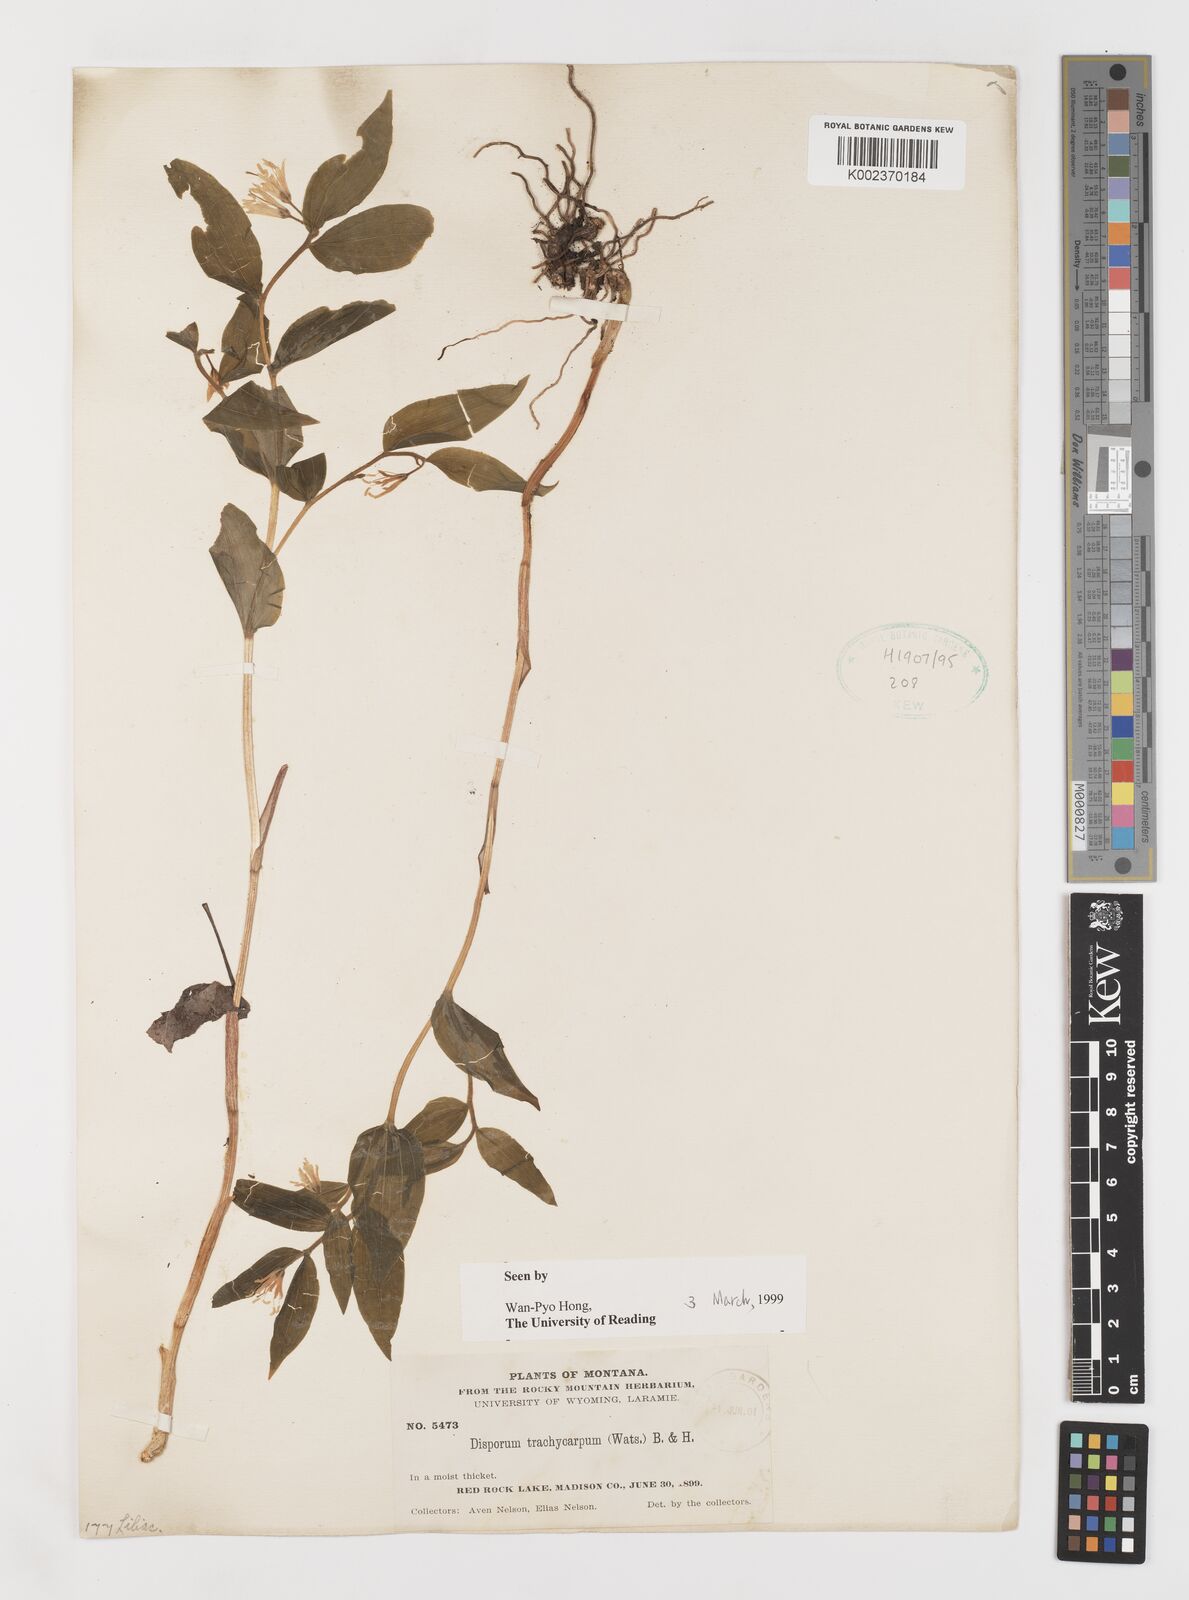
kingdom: Plantae
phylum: Tracheophyta
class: Liliopsida
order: Liliales
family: Liliaceae
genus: Prosartes
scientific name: Prosartes trachycarpa
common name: Rough-fruit fairy-bells
